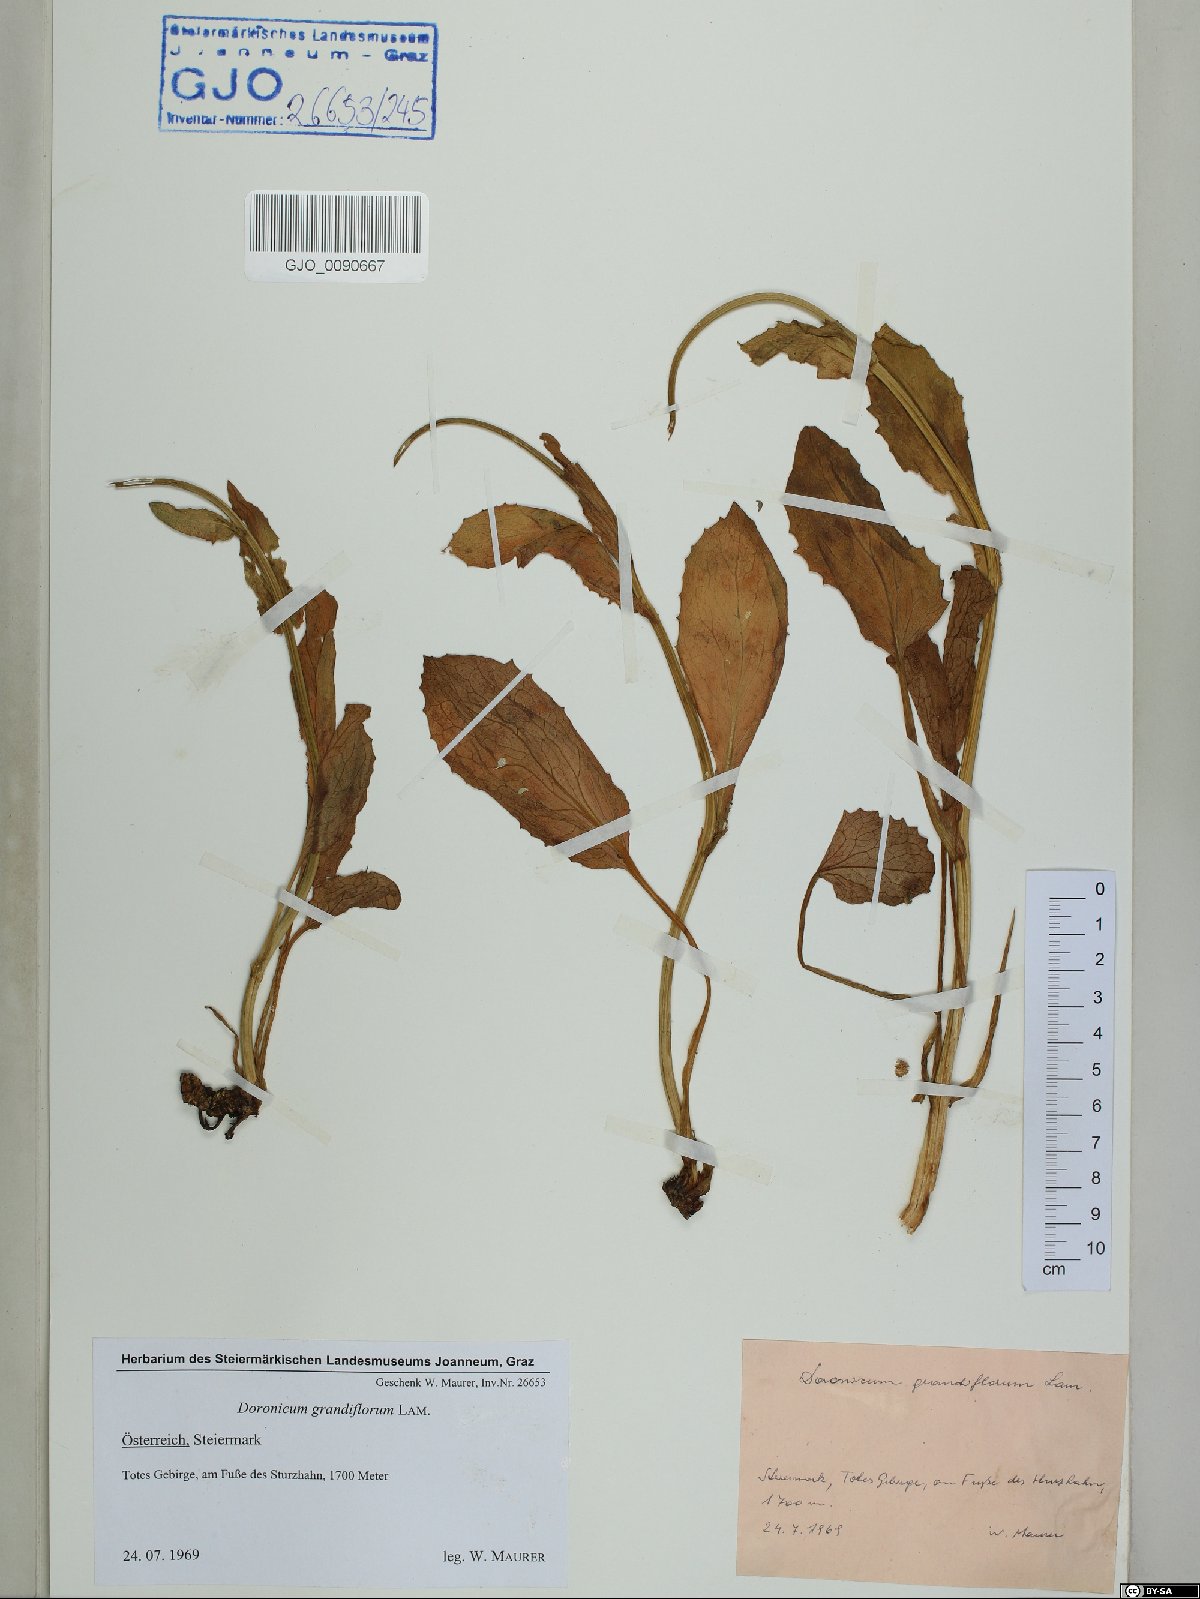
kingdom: Plantae
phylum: Tracheophyta
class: Magnoliopsida
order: Asterales
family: Asteraceae
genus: Doronicum
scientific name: Doronicum grandiflorum
